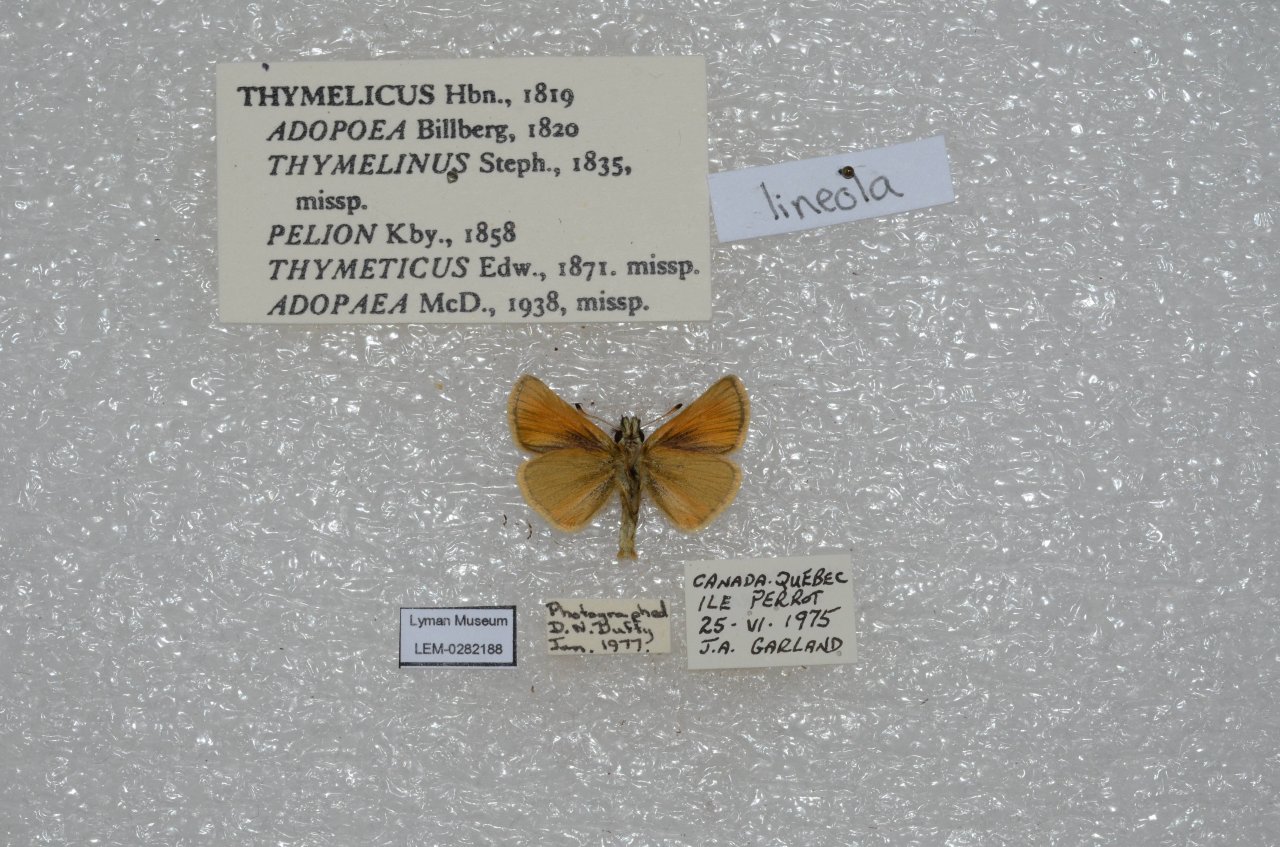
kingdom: Animalia
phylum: Arthropoda
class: Insecta
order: Lepidoptera
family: Hesperiidae
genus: Thymelicus
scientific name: Thymelicus lineola
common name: European Skipper
